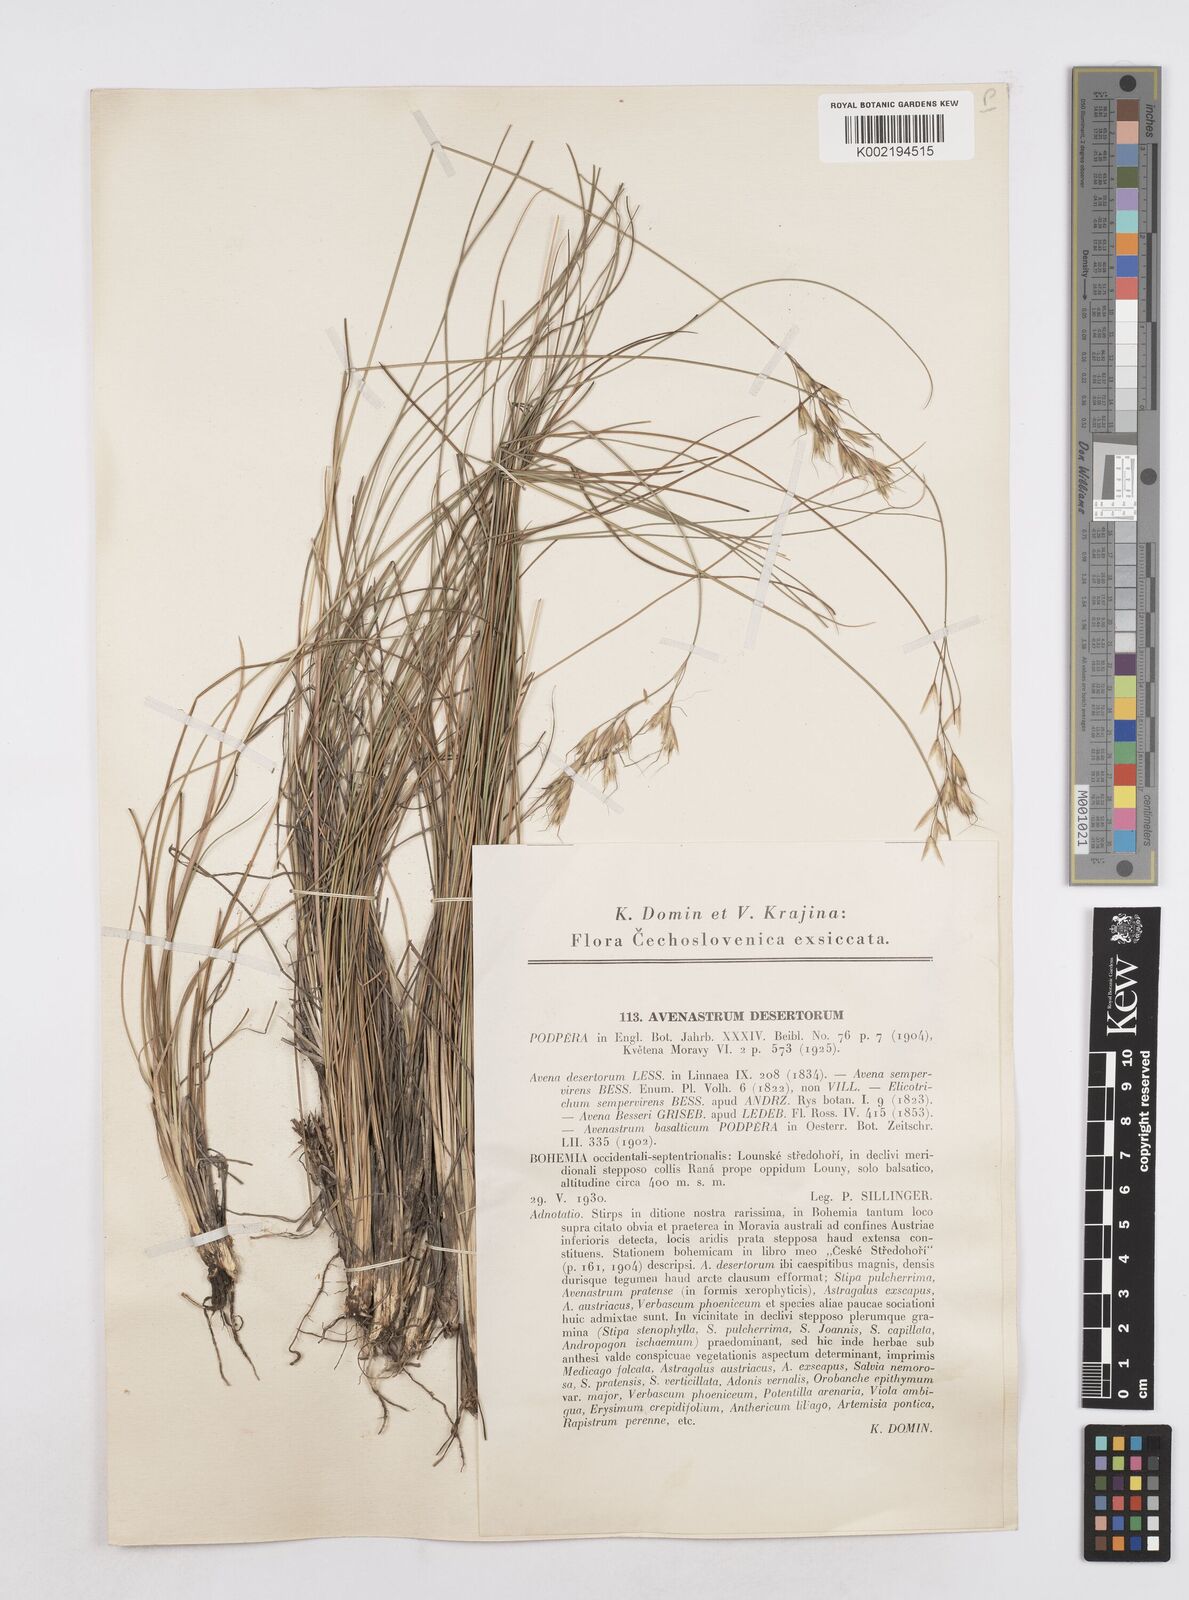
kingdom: Plantae
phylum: Tracheophyta
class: Liliopsida
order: Poales
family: Poaceae
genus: Helictotrichon
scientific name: Helictotrichon desertorum
